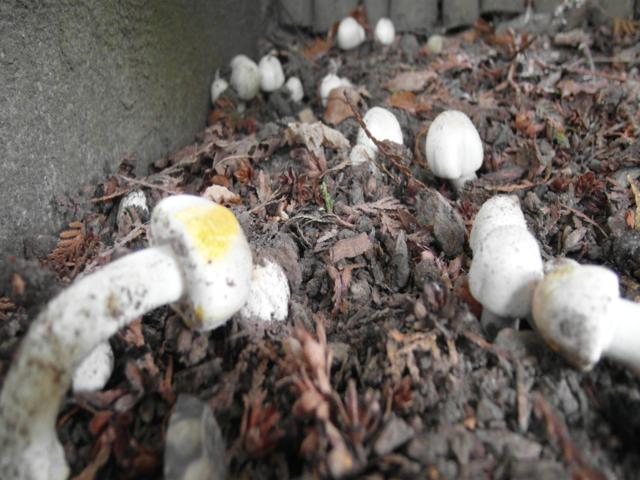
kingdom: Fungi
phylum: Basidiomycota
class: Agaricomycetes
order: Agaricales
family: Agaricaceae
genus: Agaricus
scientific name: Agaricus xanthodermus
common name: karbol-champignon
